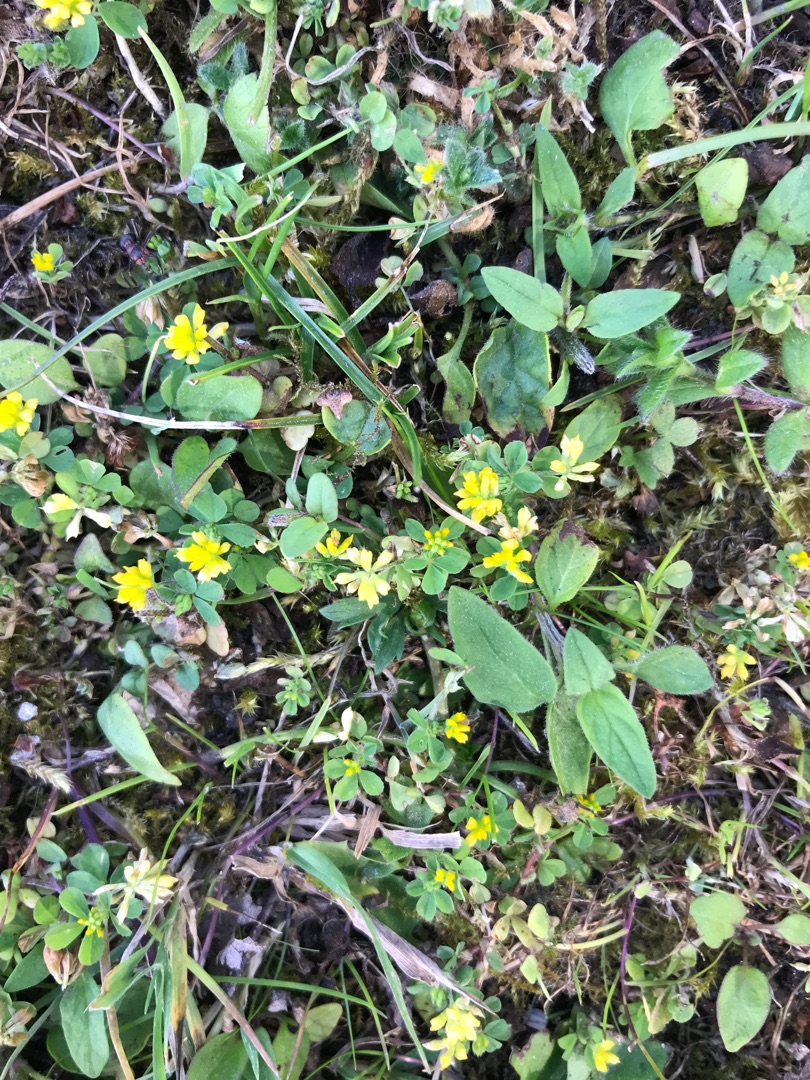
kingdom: Plantae
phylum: Tracheophyta
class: Magnoliopsida
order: Fabales
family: Fabaceae
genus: Trifolium
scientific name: Trifolium dubium
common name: Fin kløver
